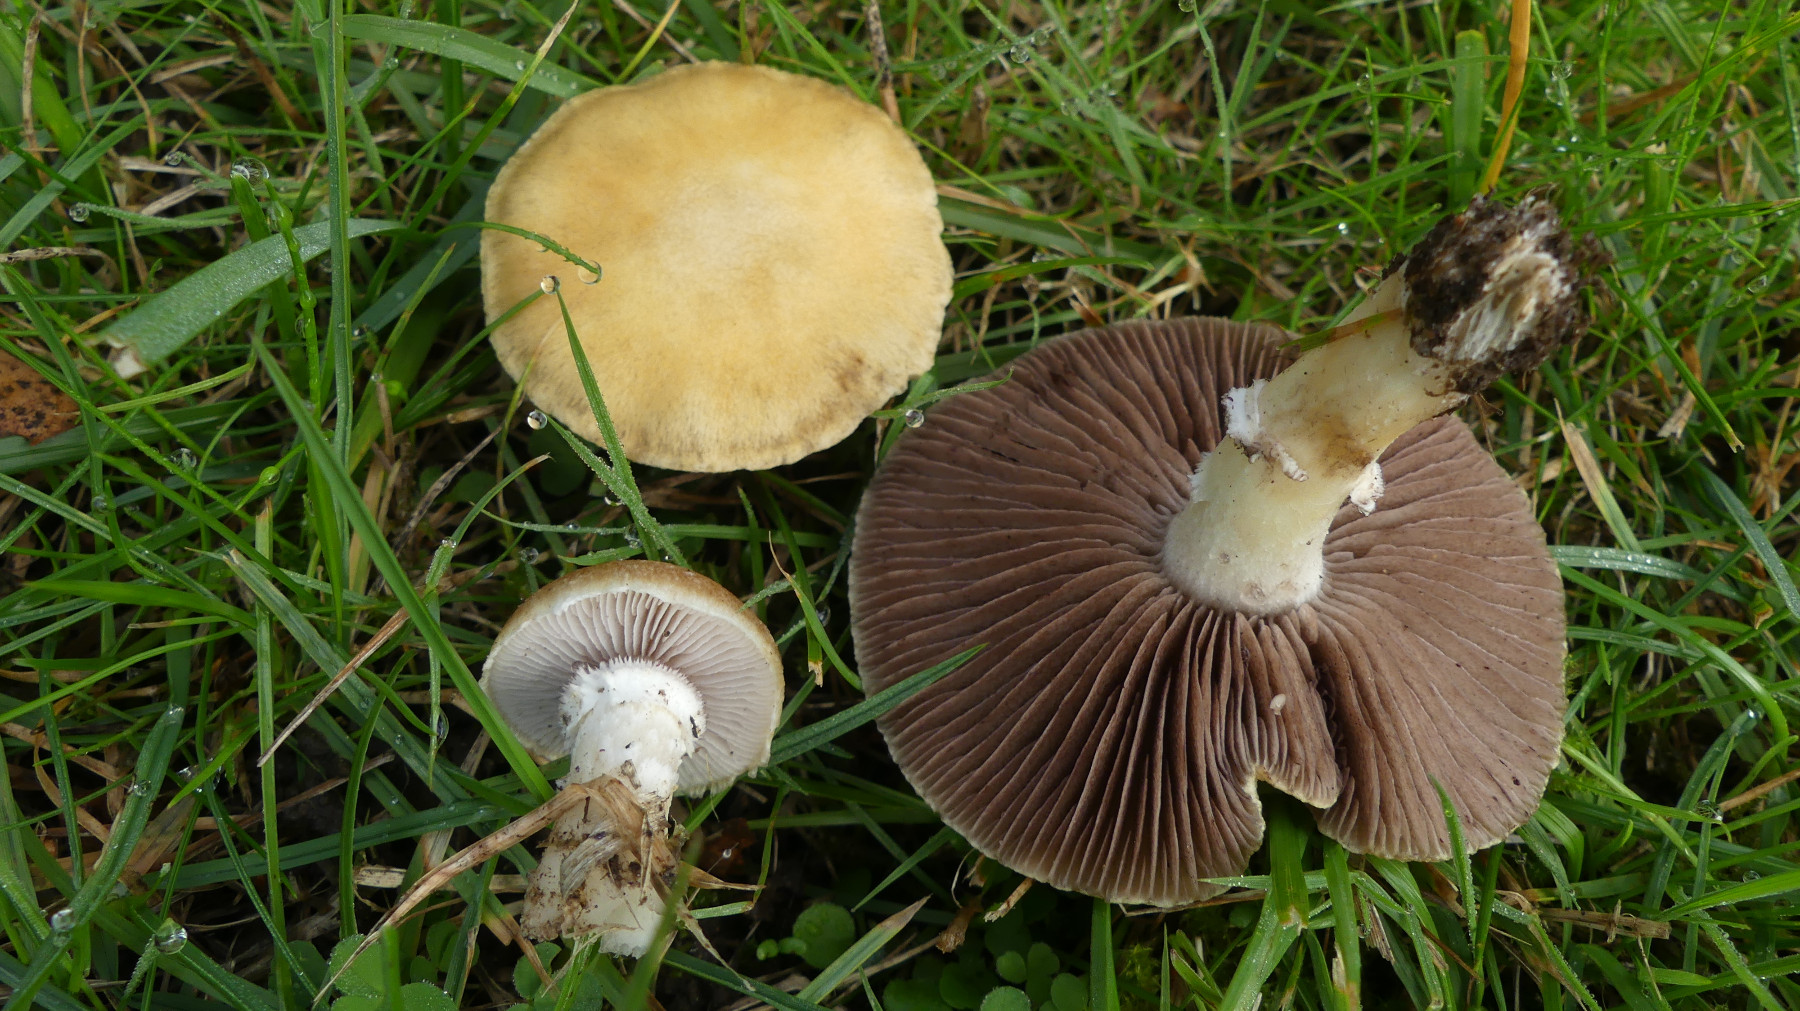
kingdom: Fungi
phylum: Basidiomycota
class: Agaricomycetes
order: Agaricales
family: Hymenogastraceae
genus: Psilocybe
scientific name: Psilocybe coronilla
